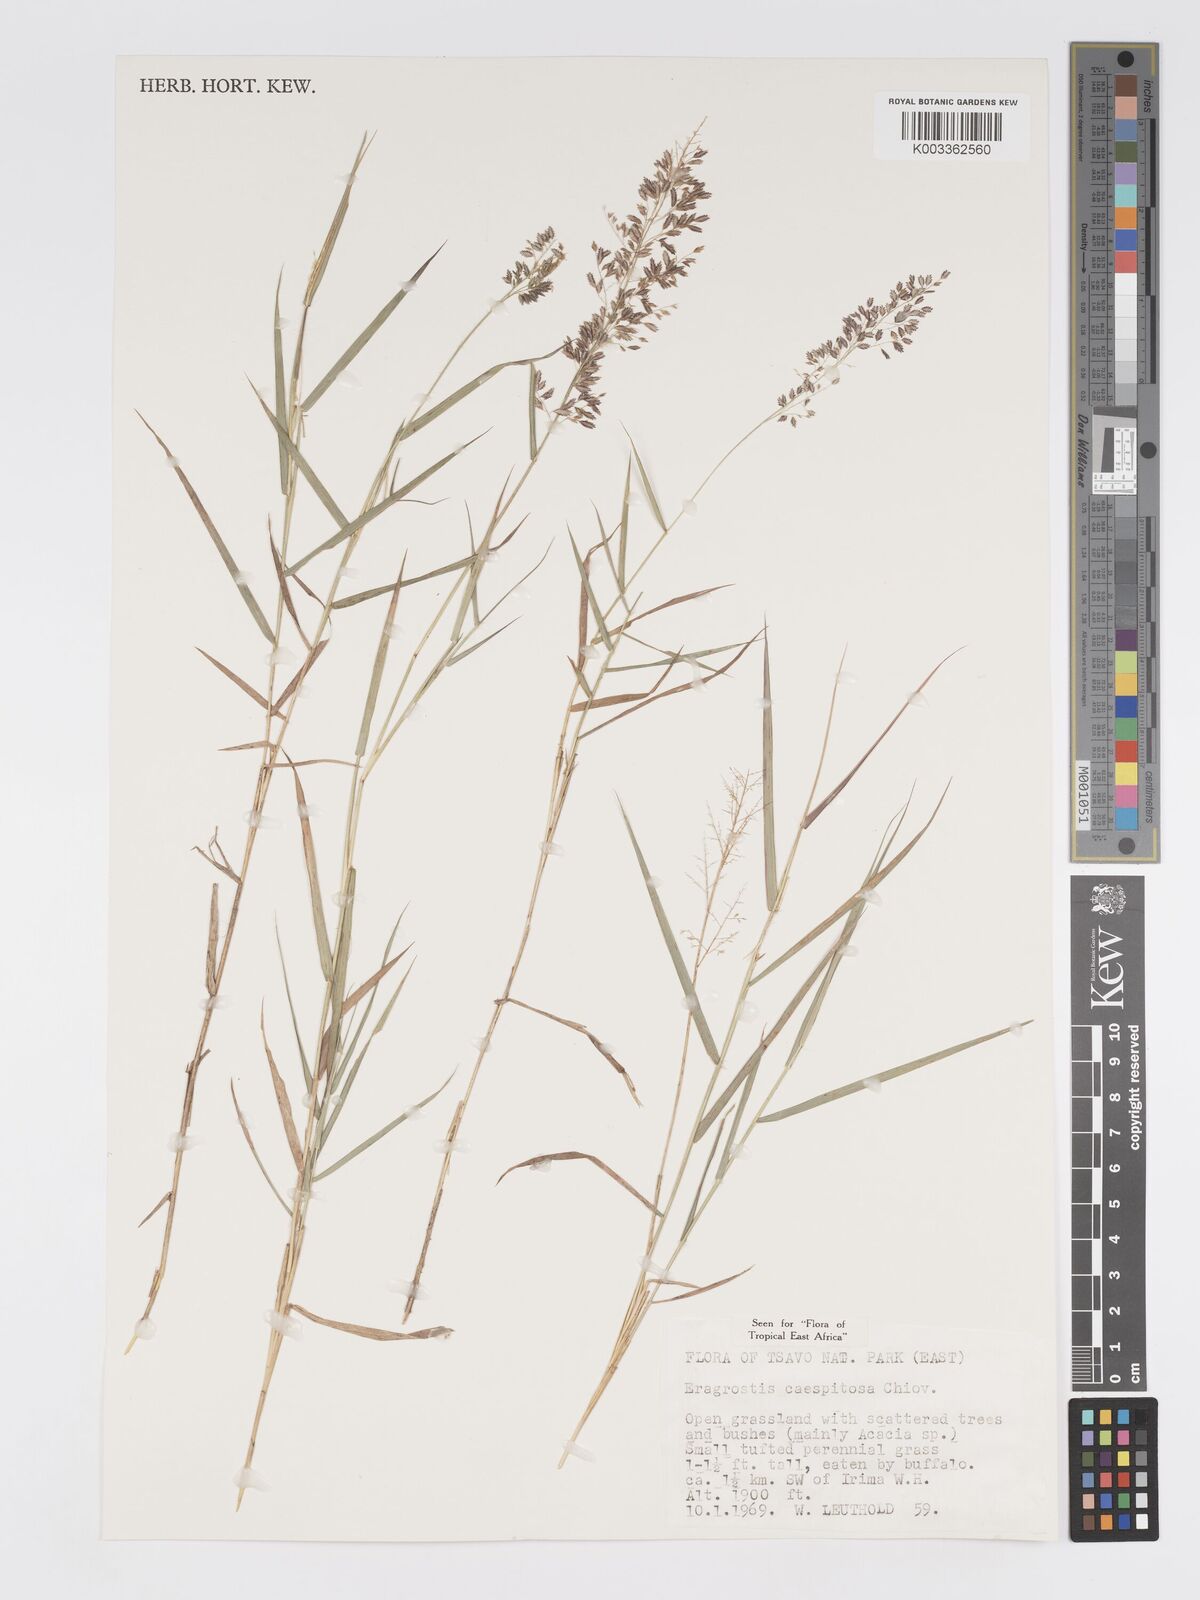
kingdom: Plantae
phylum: Tracheophyta
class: Liliopsida
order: Poales
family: Poaceae
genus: Eragrostis
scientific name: Eragrostis caespitosa
